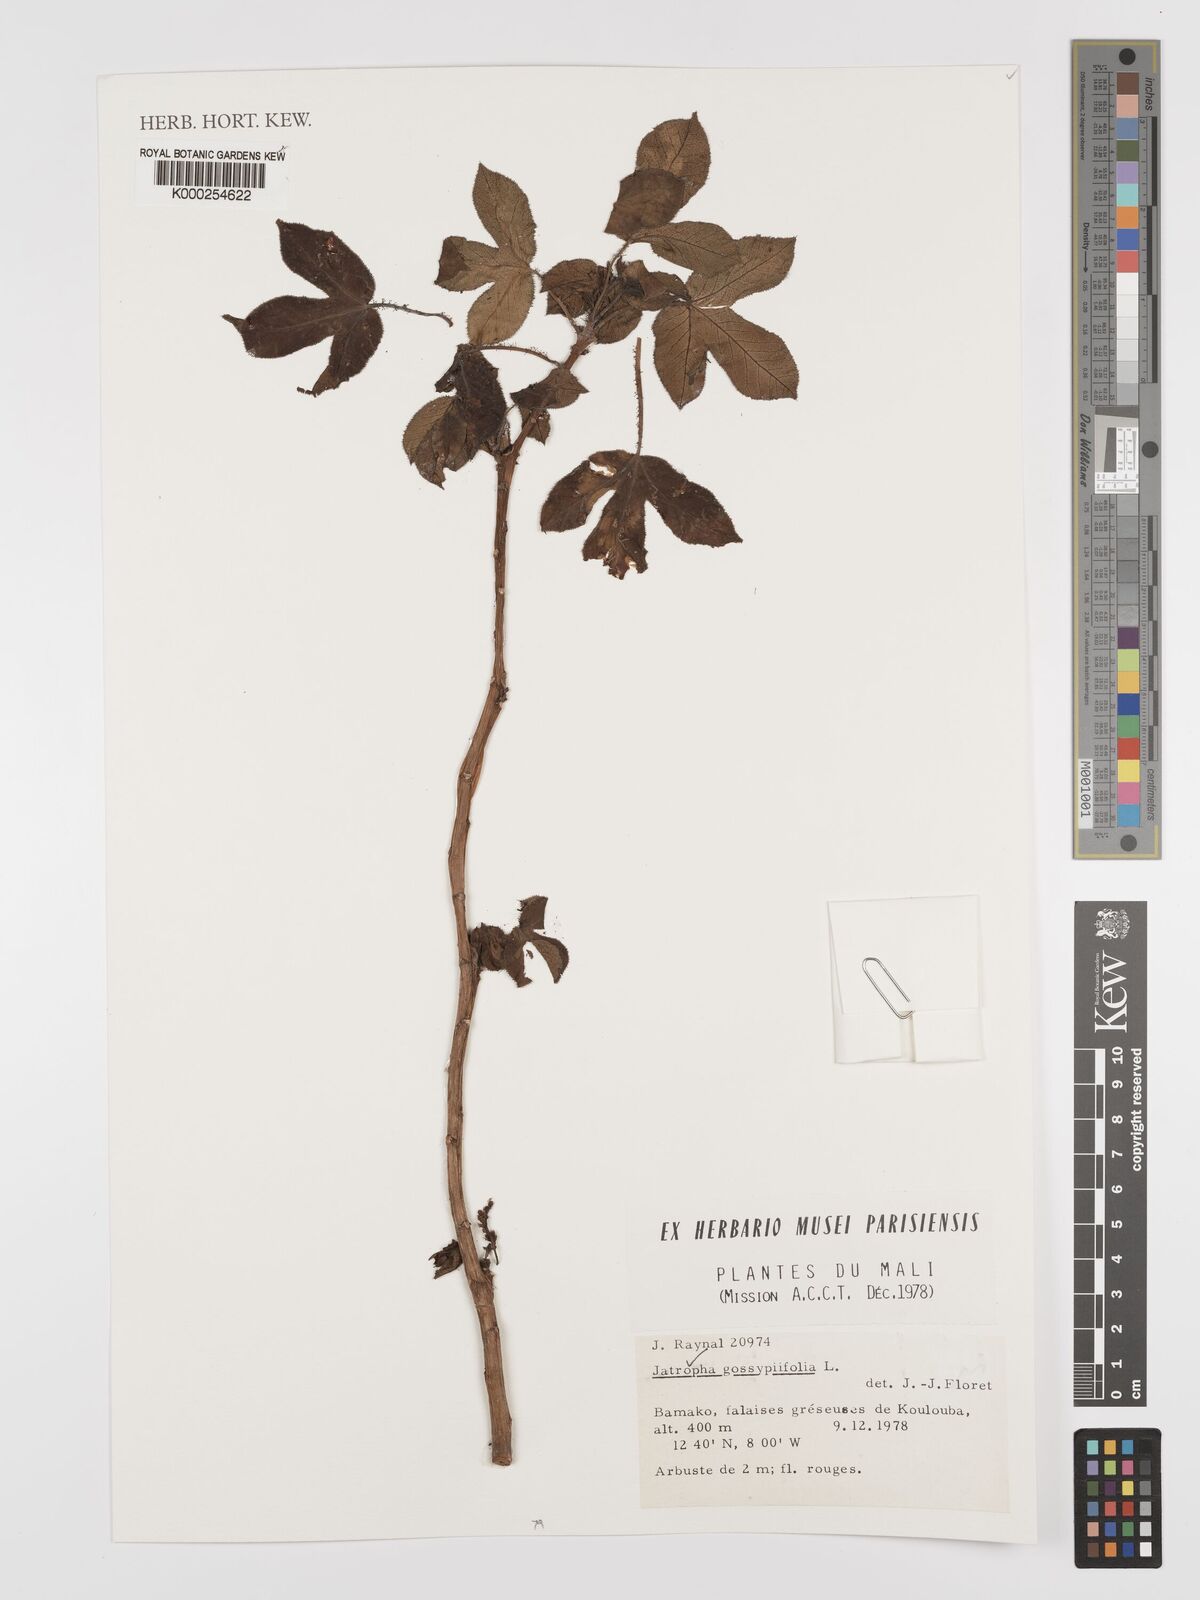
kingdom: Plantae
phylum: Tracheophyta
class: Magnoliopsida
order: Malpighiales
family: Euphorbiaceae
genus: Jatropha
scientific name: Jatropha gossypiifolia
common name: Bellyache bush
